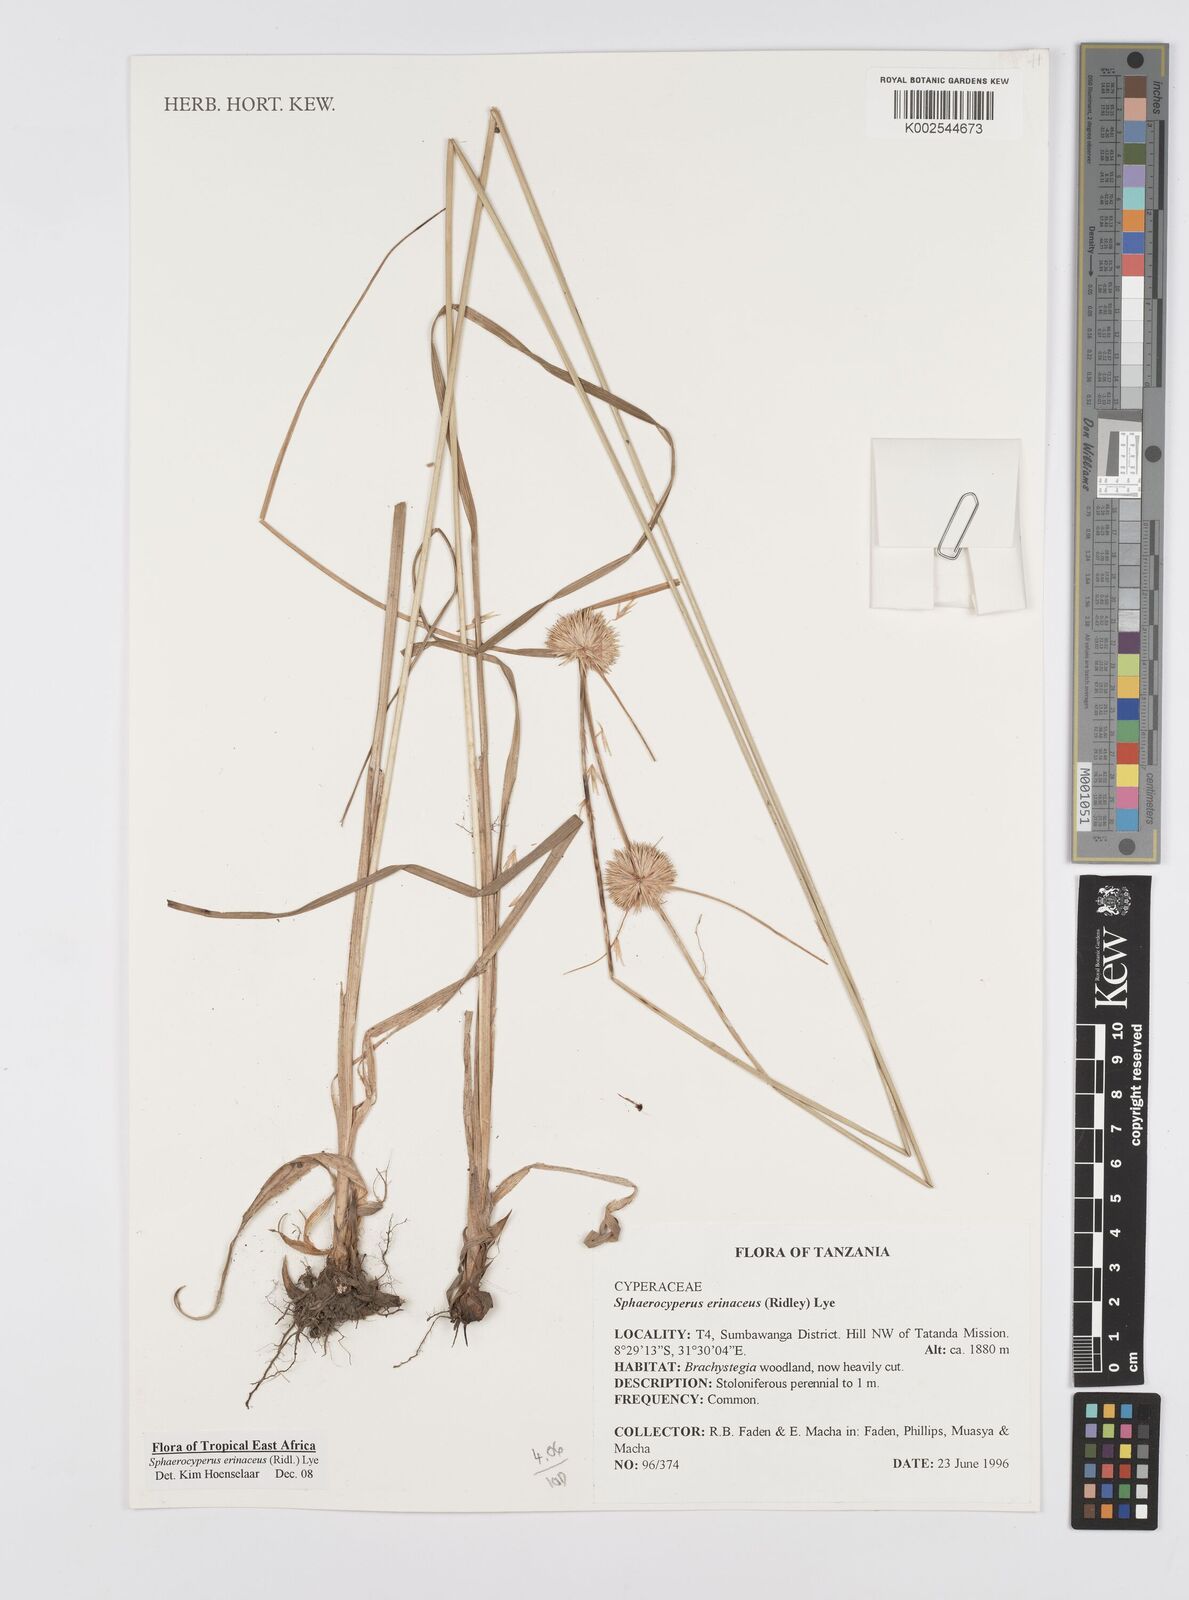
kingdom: Plantae
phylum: Tracheophyta
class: Liliopsida
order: Poales
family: Cyperaceae
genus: Cyperus
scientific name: Cyperus erinaceus
